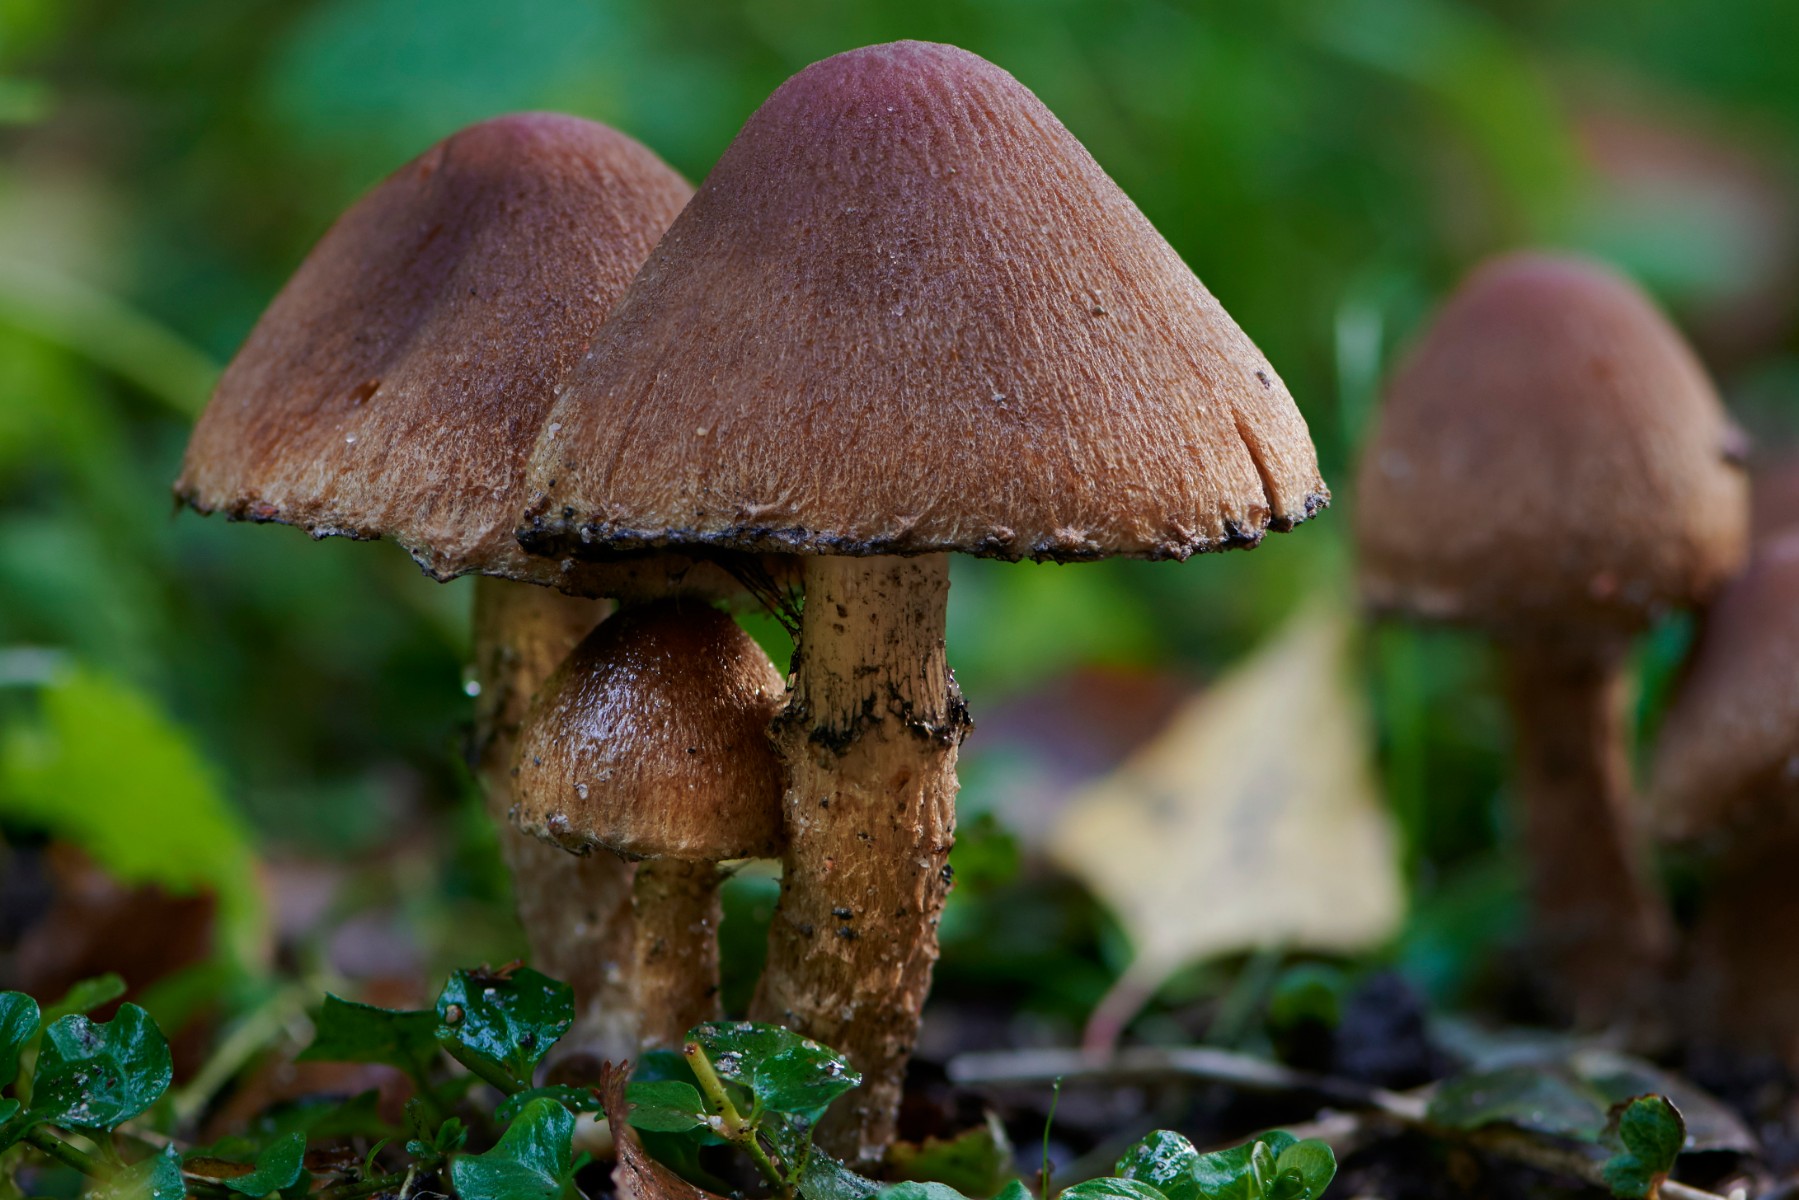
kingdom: Fungi
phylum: Basidiomycota
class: Agaricomycetes
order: Agaricales
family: Psathyrellaceae
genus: Lacrymaria
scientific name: Lacrymaria
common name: mørkhat
